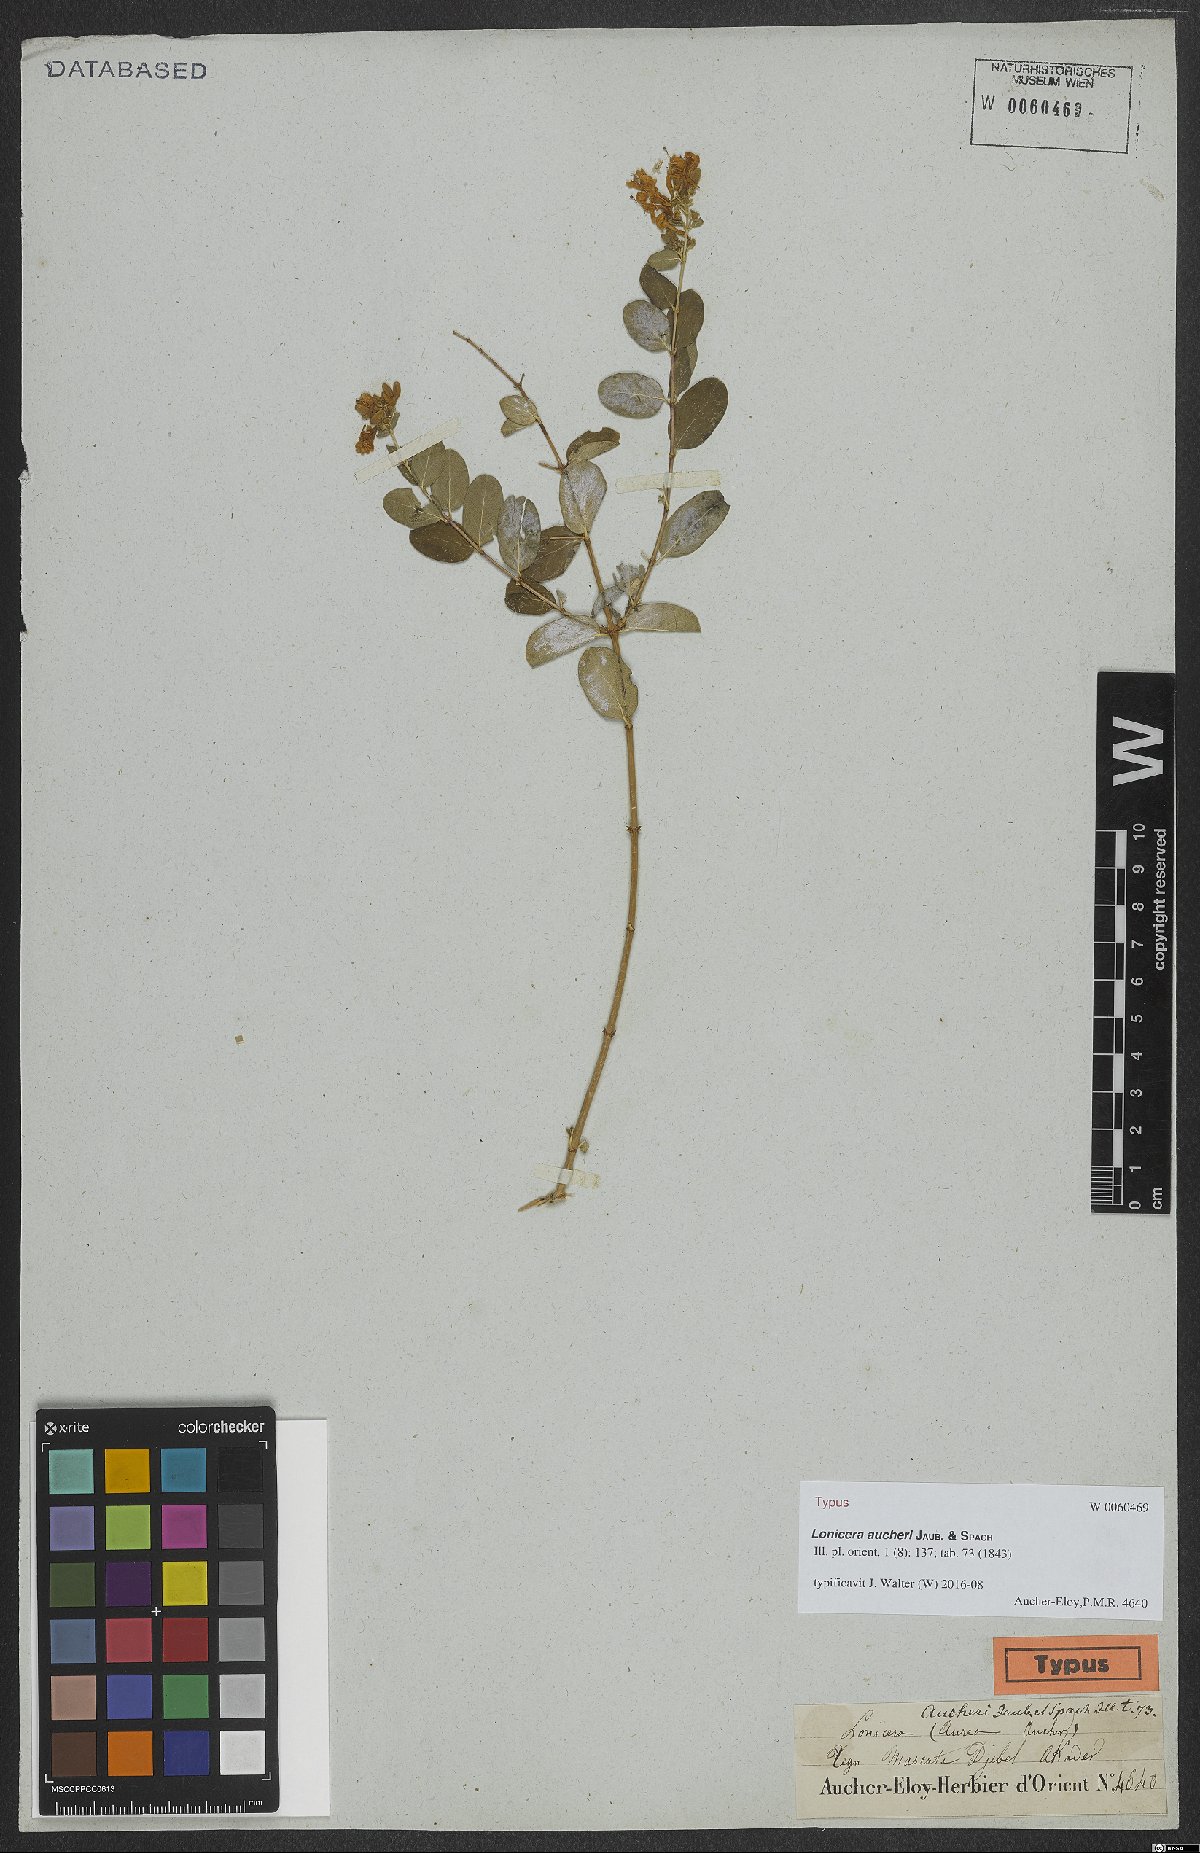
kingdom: Plantae
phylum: Tracheophyta
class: Magnoliopsida
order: Dipsacales
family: Caprifoliaceae
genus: Lonicera
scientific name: Lonicera hypoleuca
